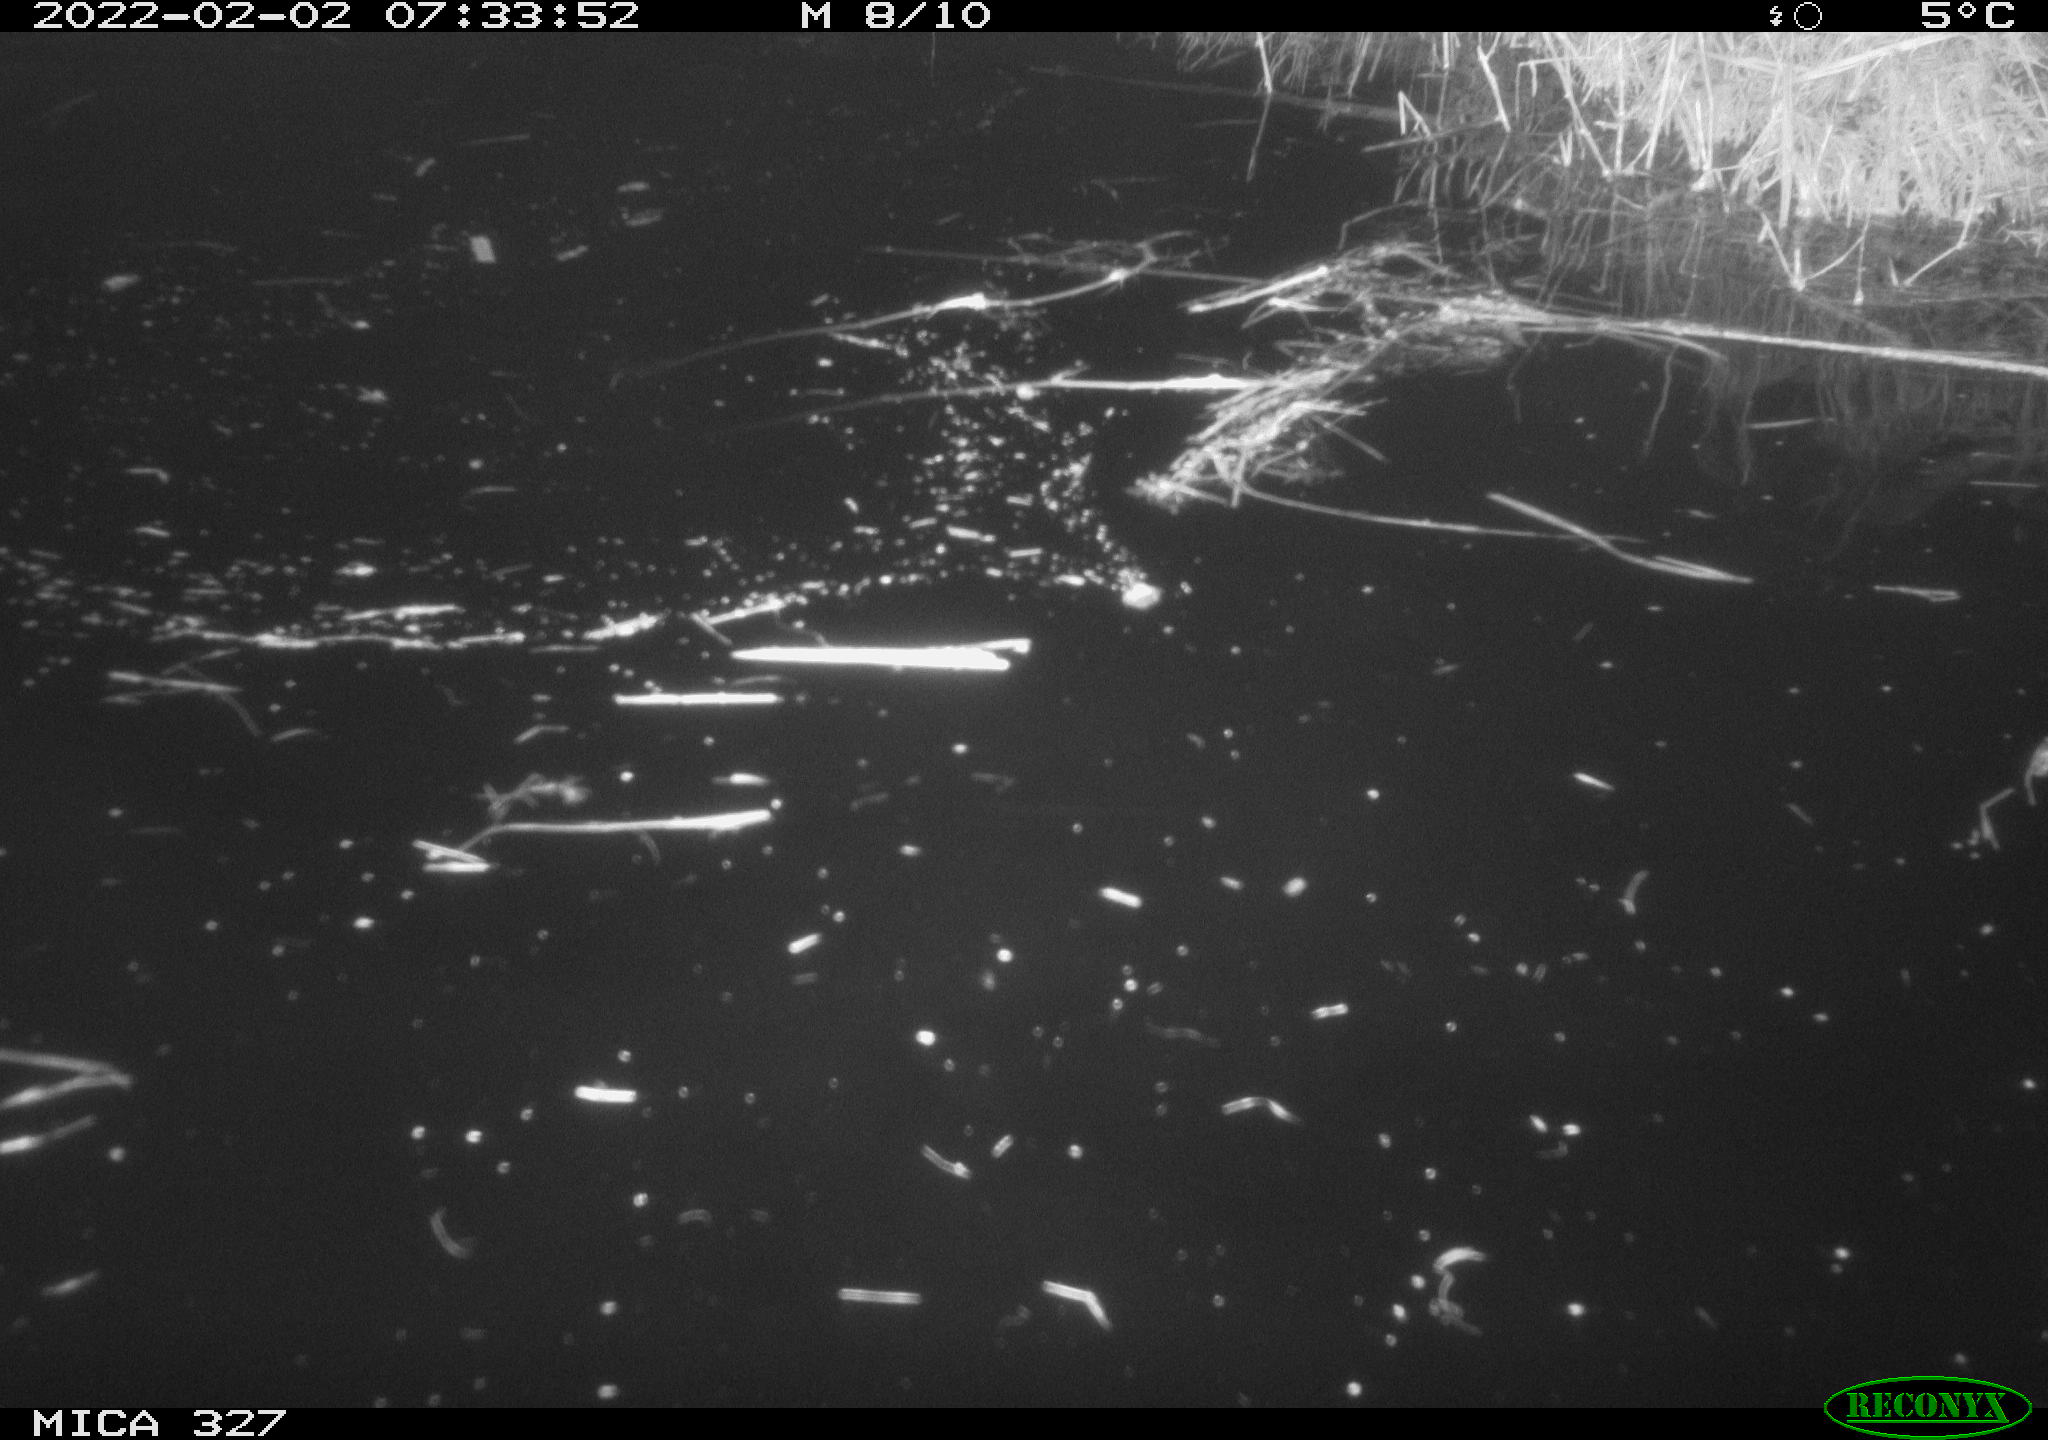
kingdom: Animalia
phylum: Chordata
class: Aves
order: Gruiformes
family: Rallidae
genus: Gallinula
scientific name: Gallinula chloropus
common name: Common moorhen
